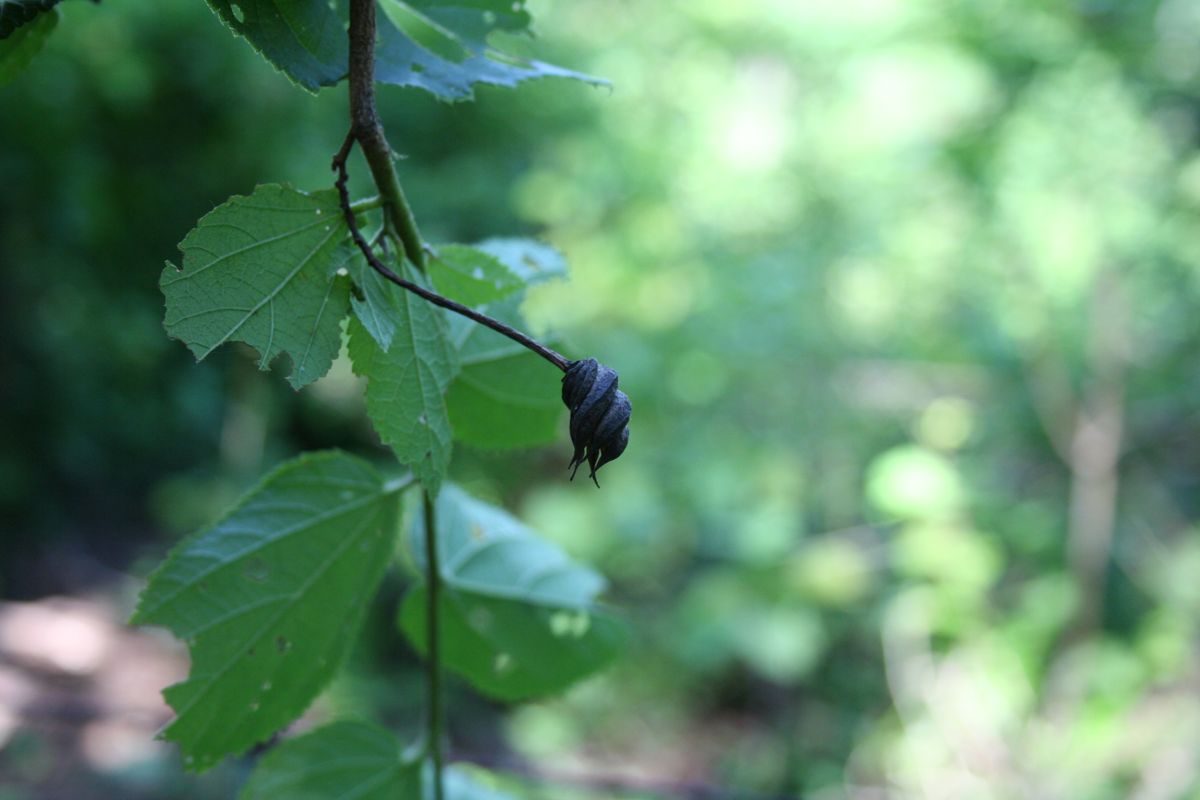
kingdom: Plantae
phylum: Tracheophyta
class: Magnoliopsida
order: Malvales
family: Malvaceae
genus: Helicteres
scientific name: Helicteres guazumifolia
